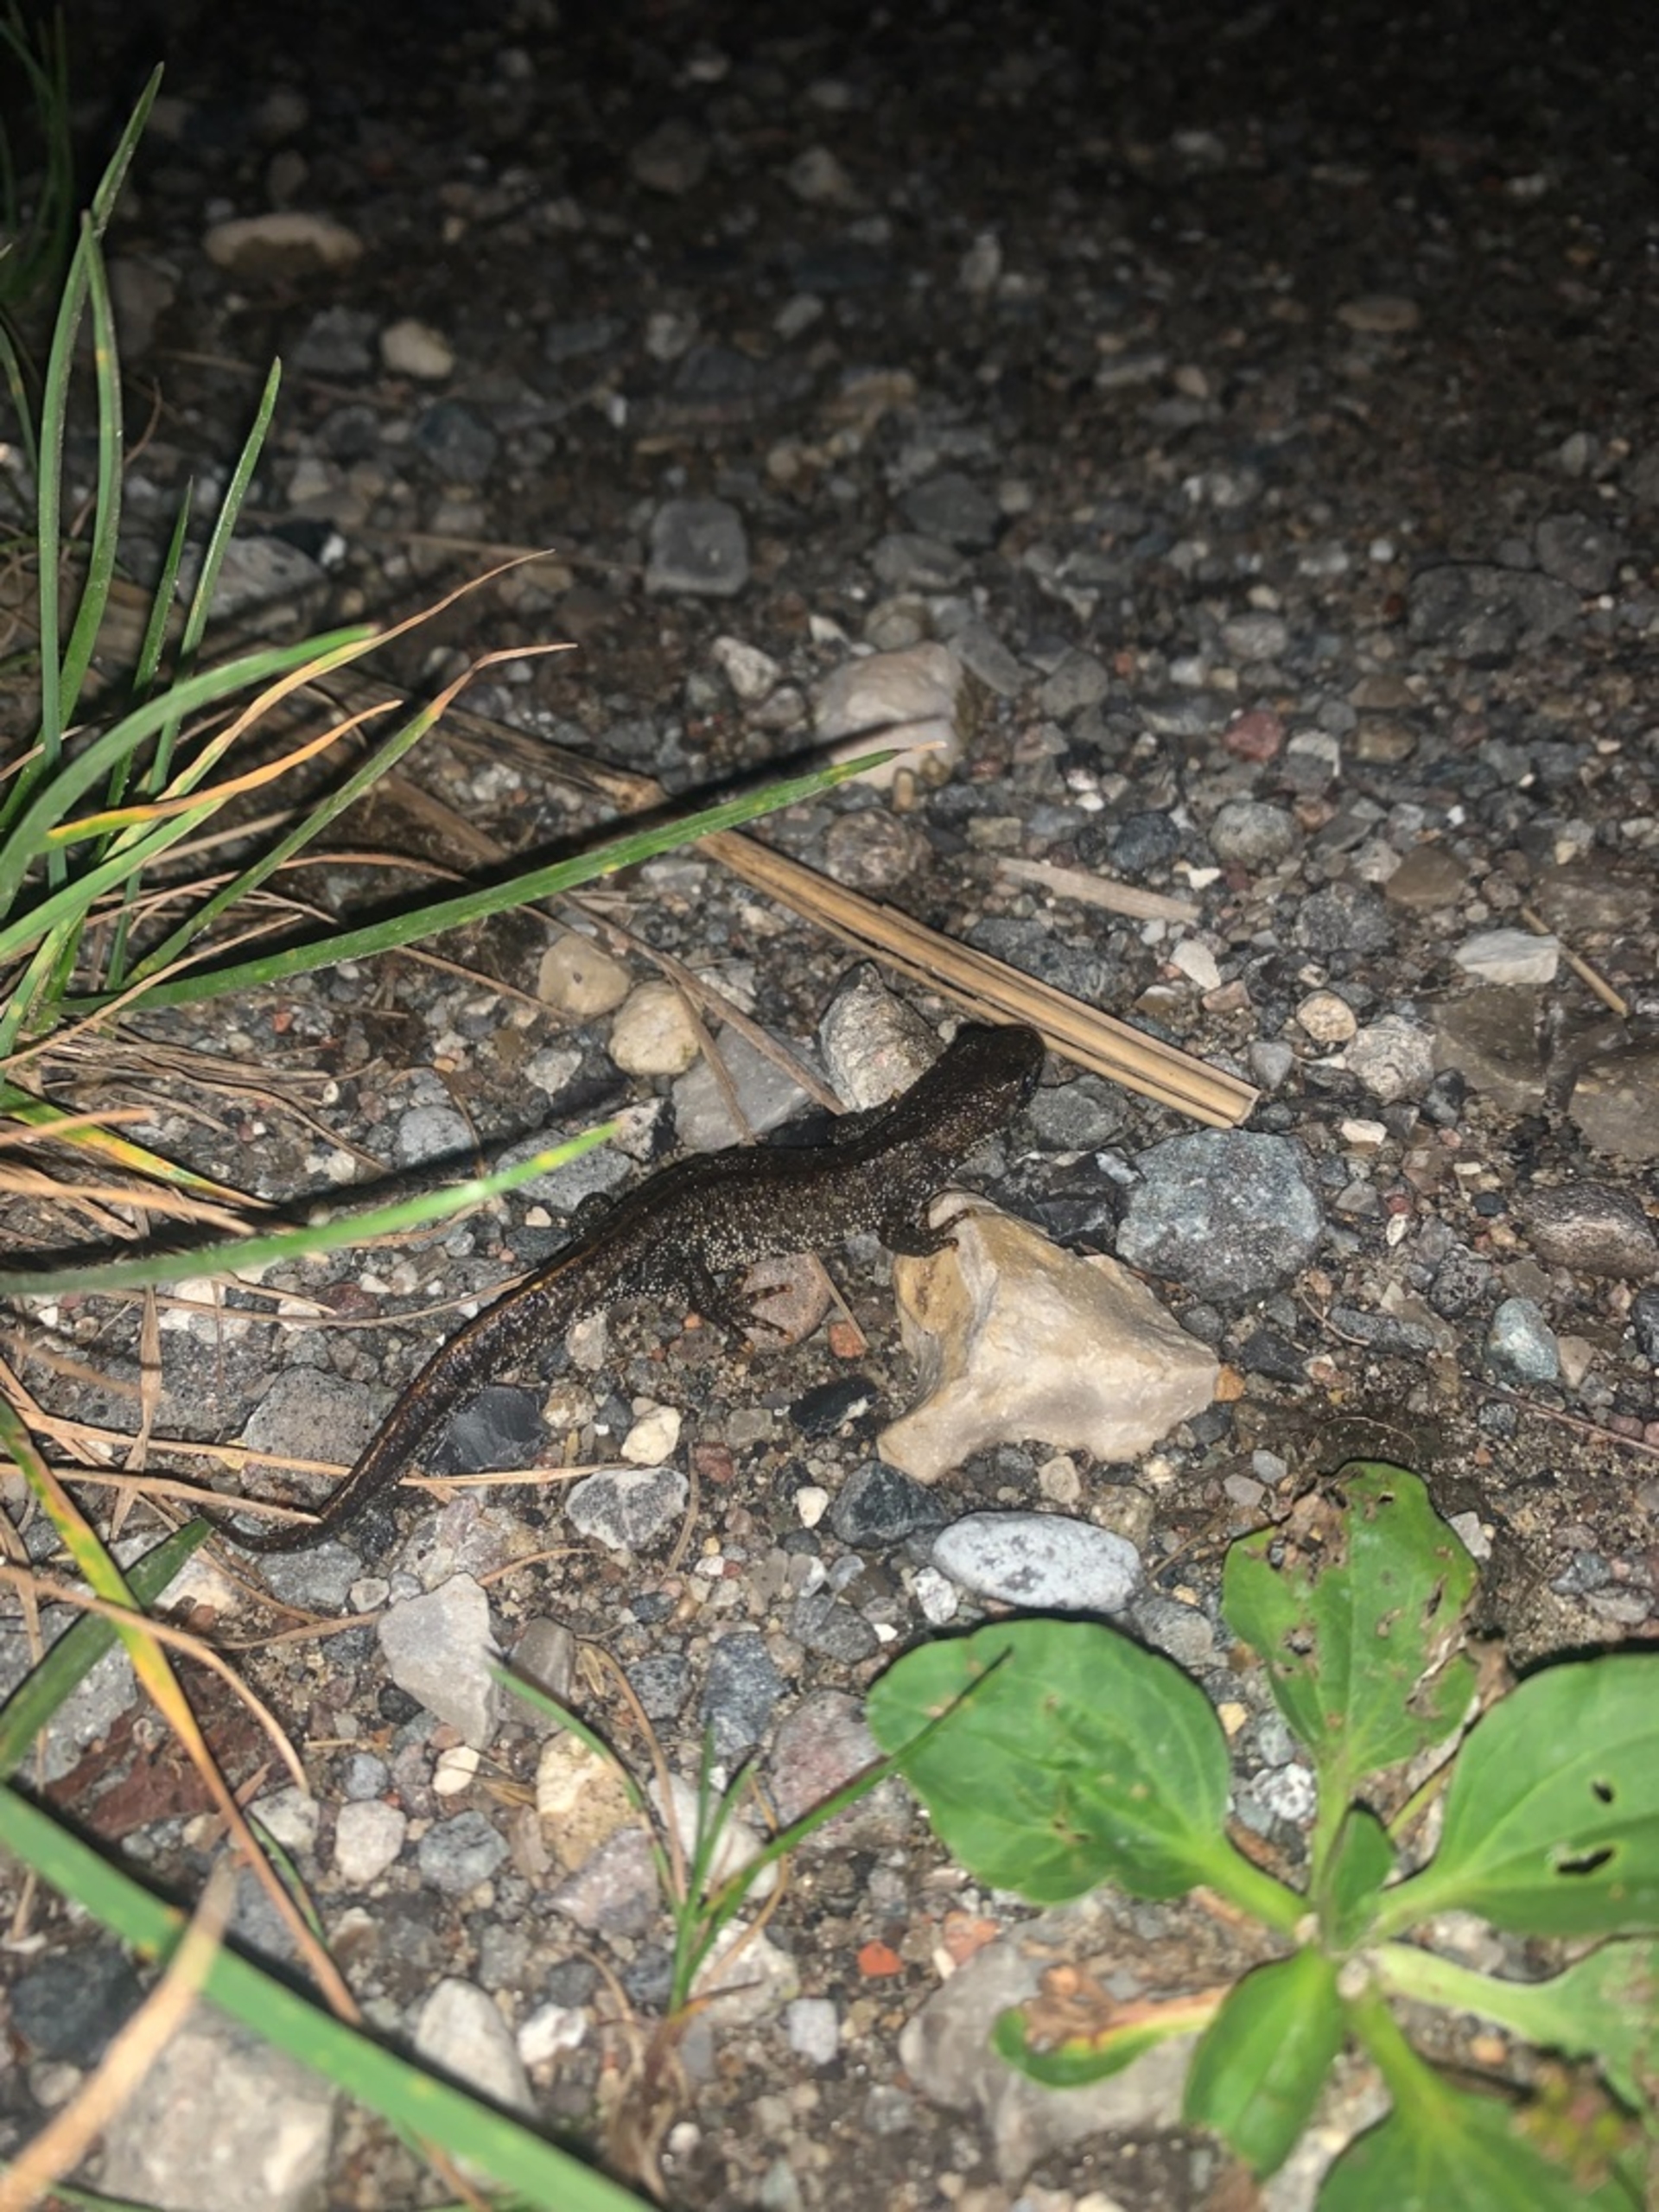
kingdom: Animalia
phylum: Chordata
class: Amphibia
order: Caudata
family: Salamandridae
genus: Triturus
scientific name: Triturus cristatus
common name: Stor vandsalamander
